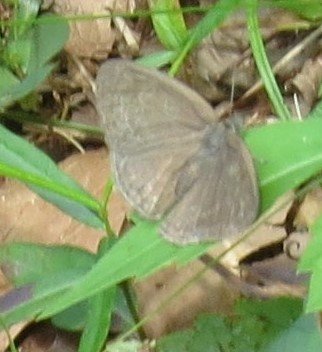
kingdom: Animalia
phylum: Arthropoda
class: Insecta
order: Lepidoptera
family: Nymphalidae
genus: Hermeuptychia
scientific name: Hermeuptychia hermes
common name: Carolina Satyr
